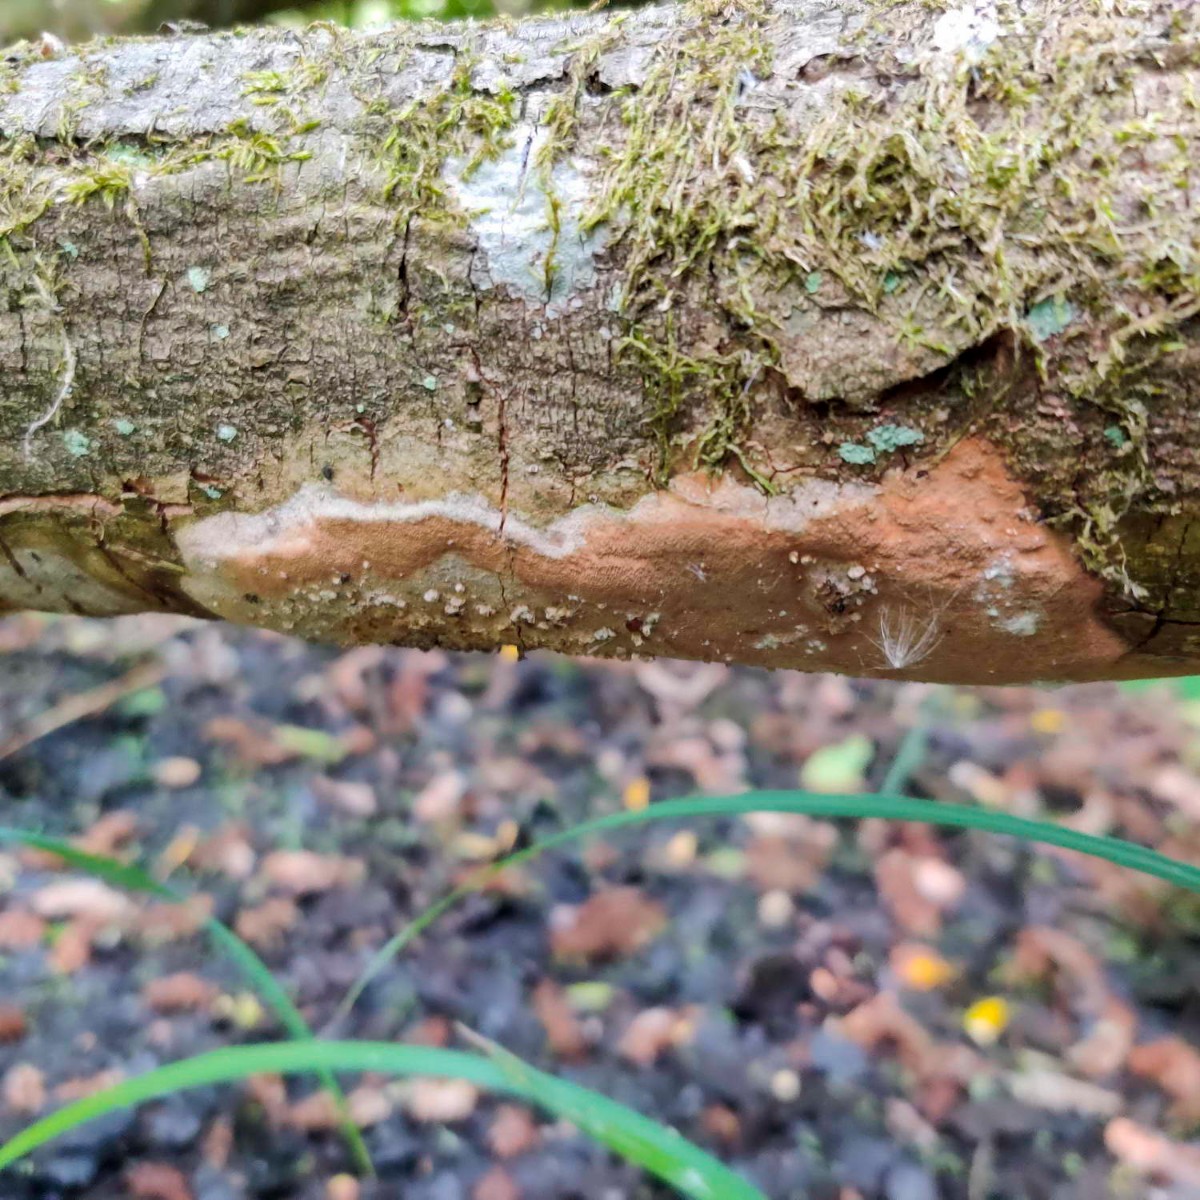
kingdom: Fungi
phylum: Basidiomycota
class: Agaricomycetes
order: Hymenochaetales
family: Hymenochaetaceae
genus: Fomitiporia
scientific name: Fomitiporia punctata
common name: pude-ildporesvamp
